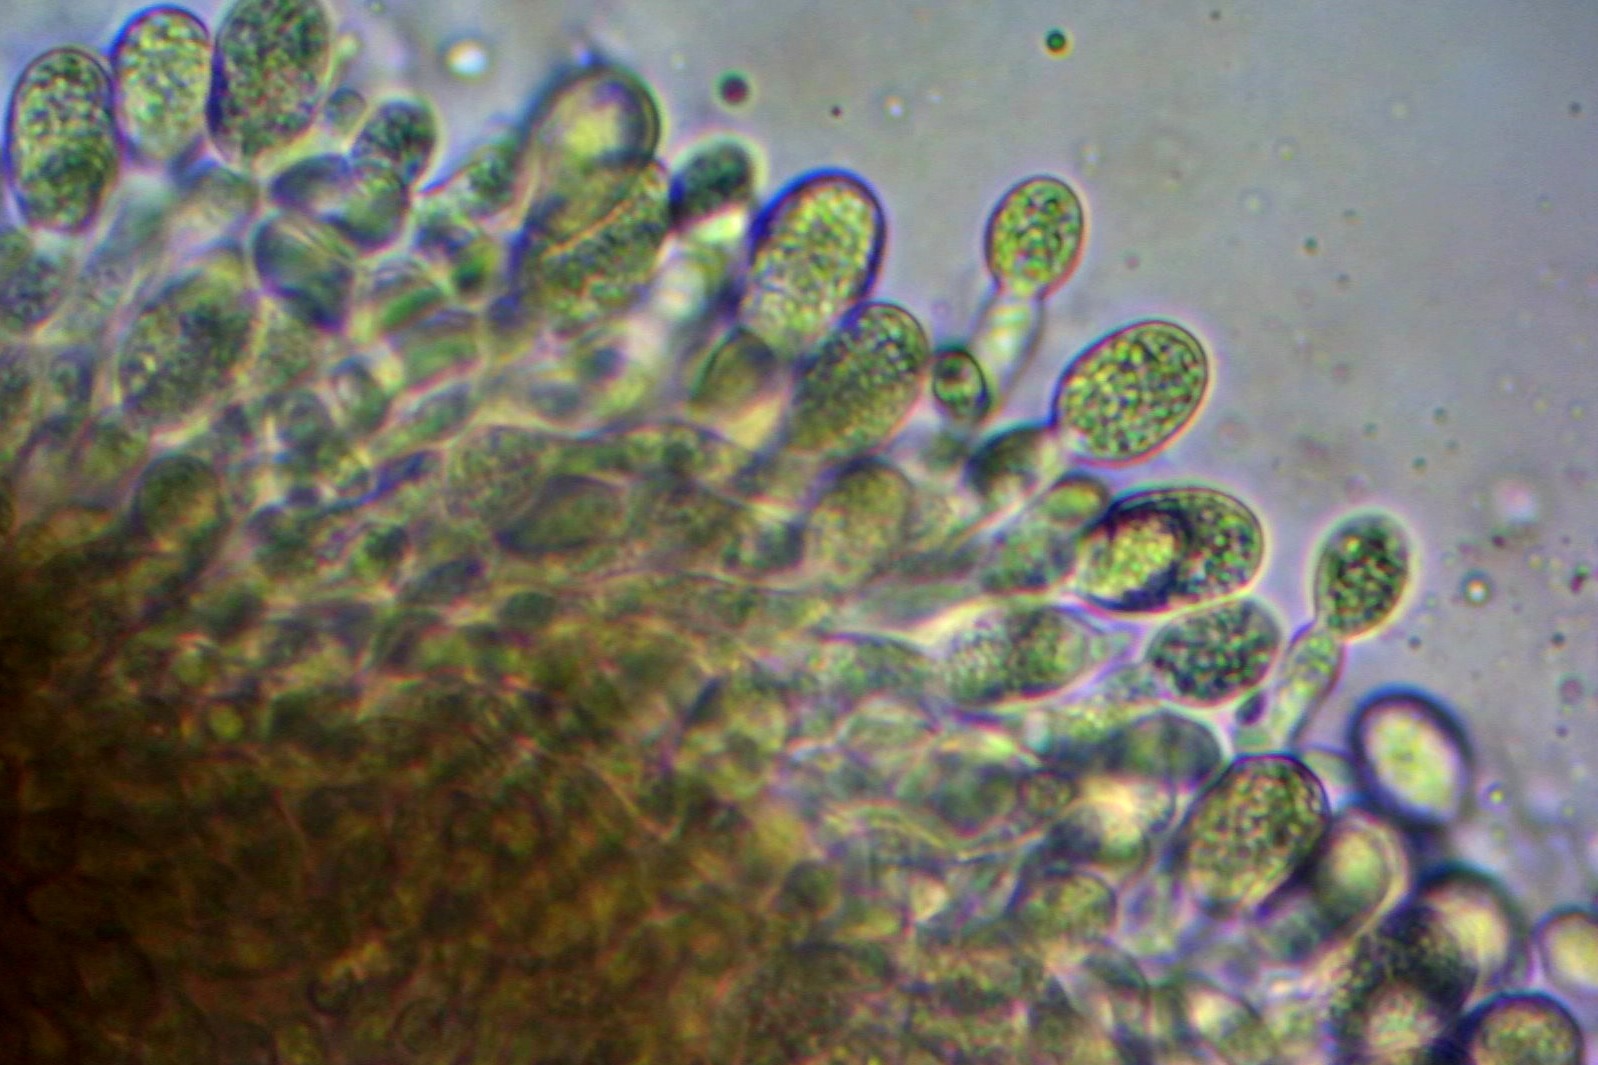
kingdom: Fungi
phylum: Ascomycota
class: Leotiomycetes
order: Rhytismatales
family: Ascodichaenaceae
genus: Ascodichaena
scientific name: Ascodichaena rugosa
